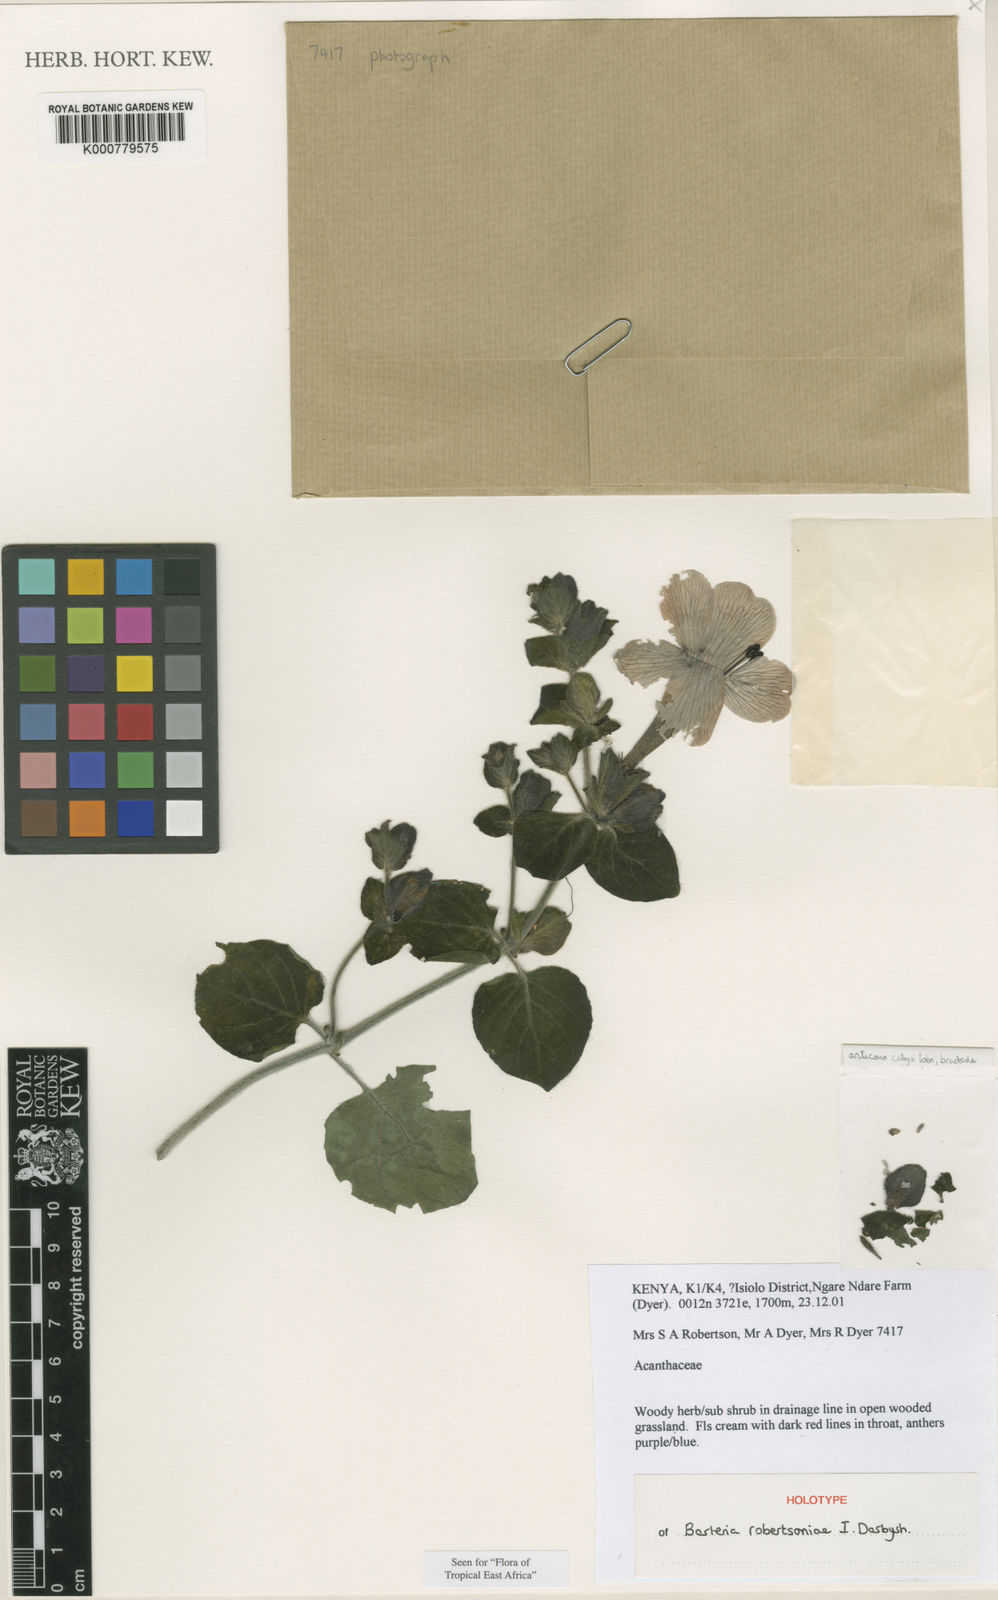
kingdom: Plantae
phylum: Tracheophyta
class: Magnoliopsida
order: Lamiales
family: Acanthaceae
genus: Barleria
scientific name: Barleria robertsoniae
